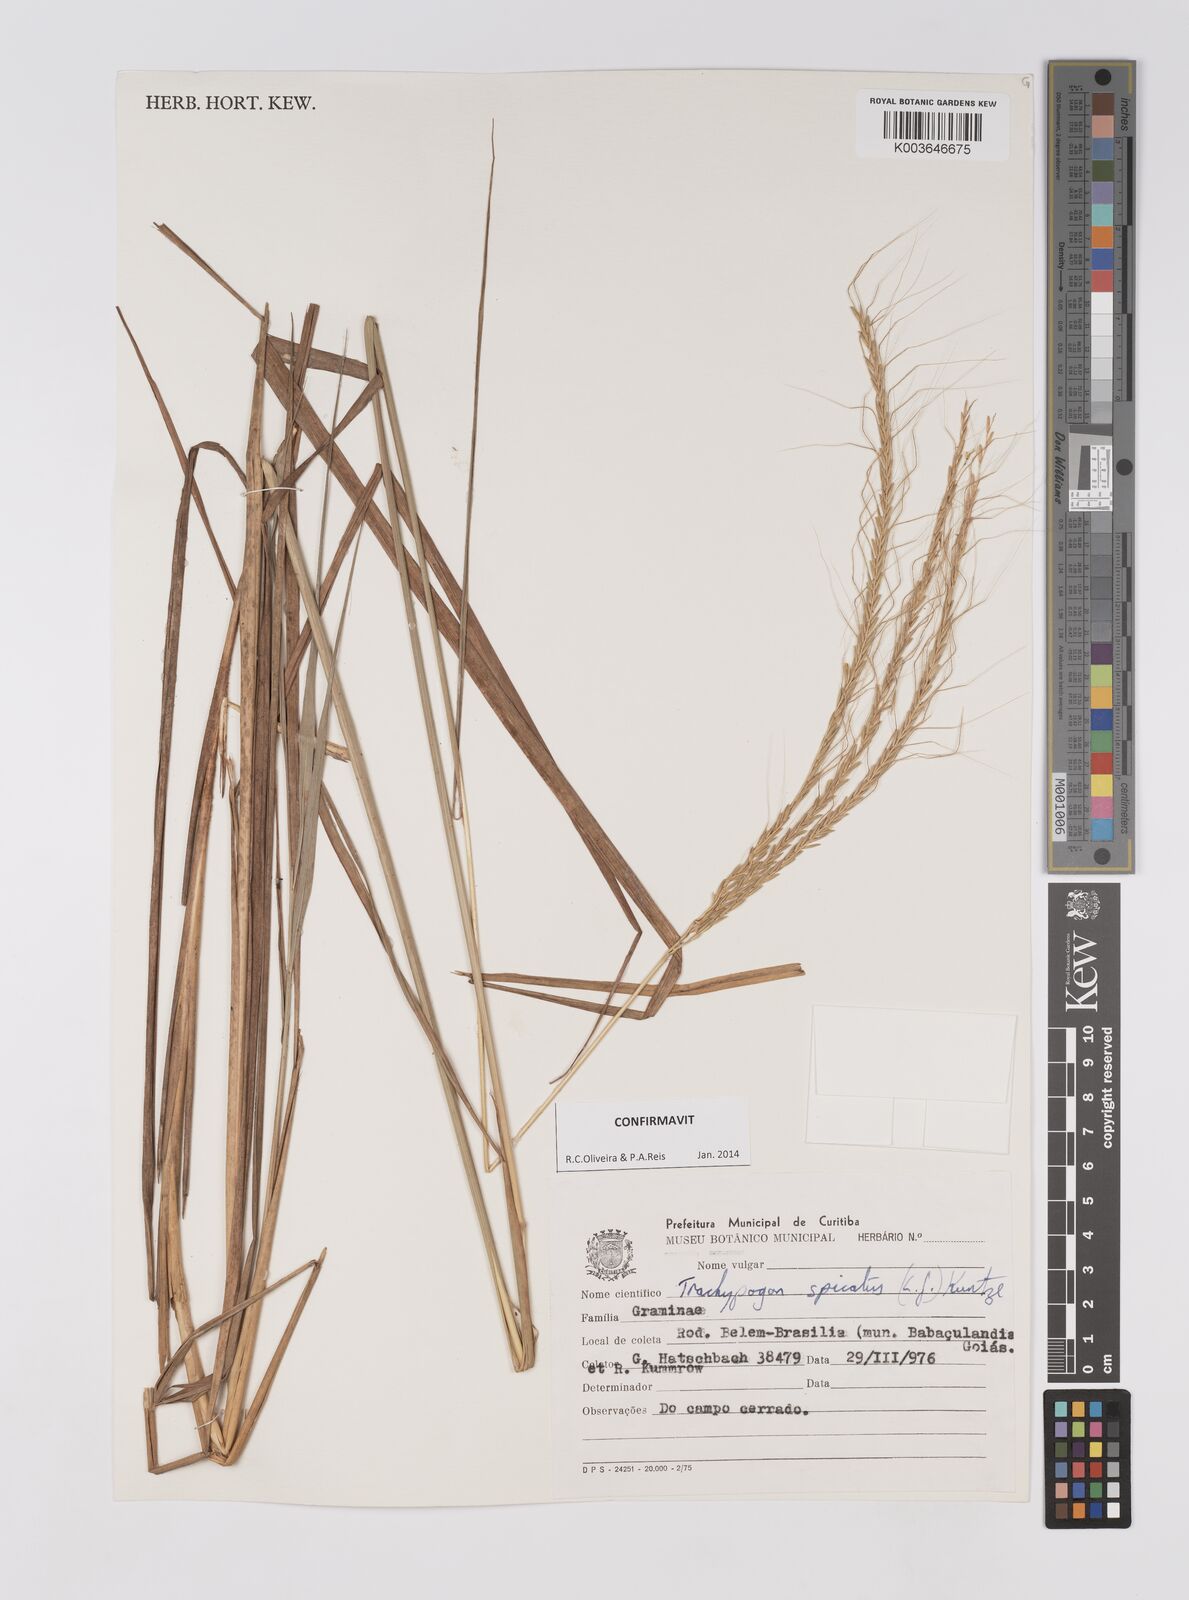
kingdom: Plantae
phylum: Tracheophyta
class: Liliopsida
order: Poales
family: Poaceae
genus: Trachypogon
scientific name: Trachypogon spicatus
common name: Crinkle-awn
